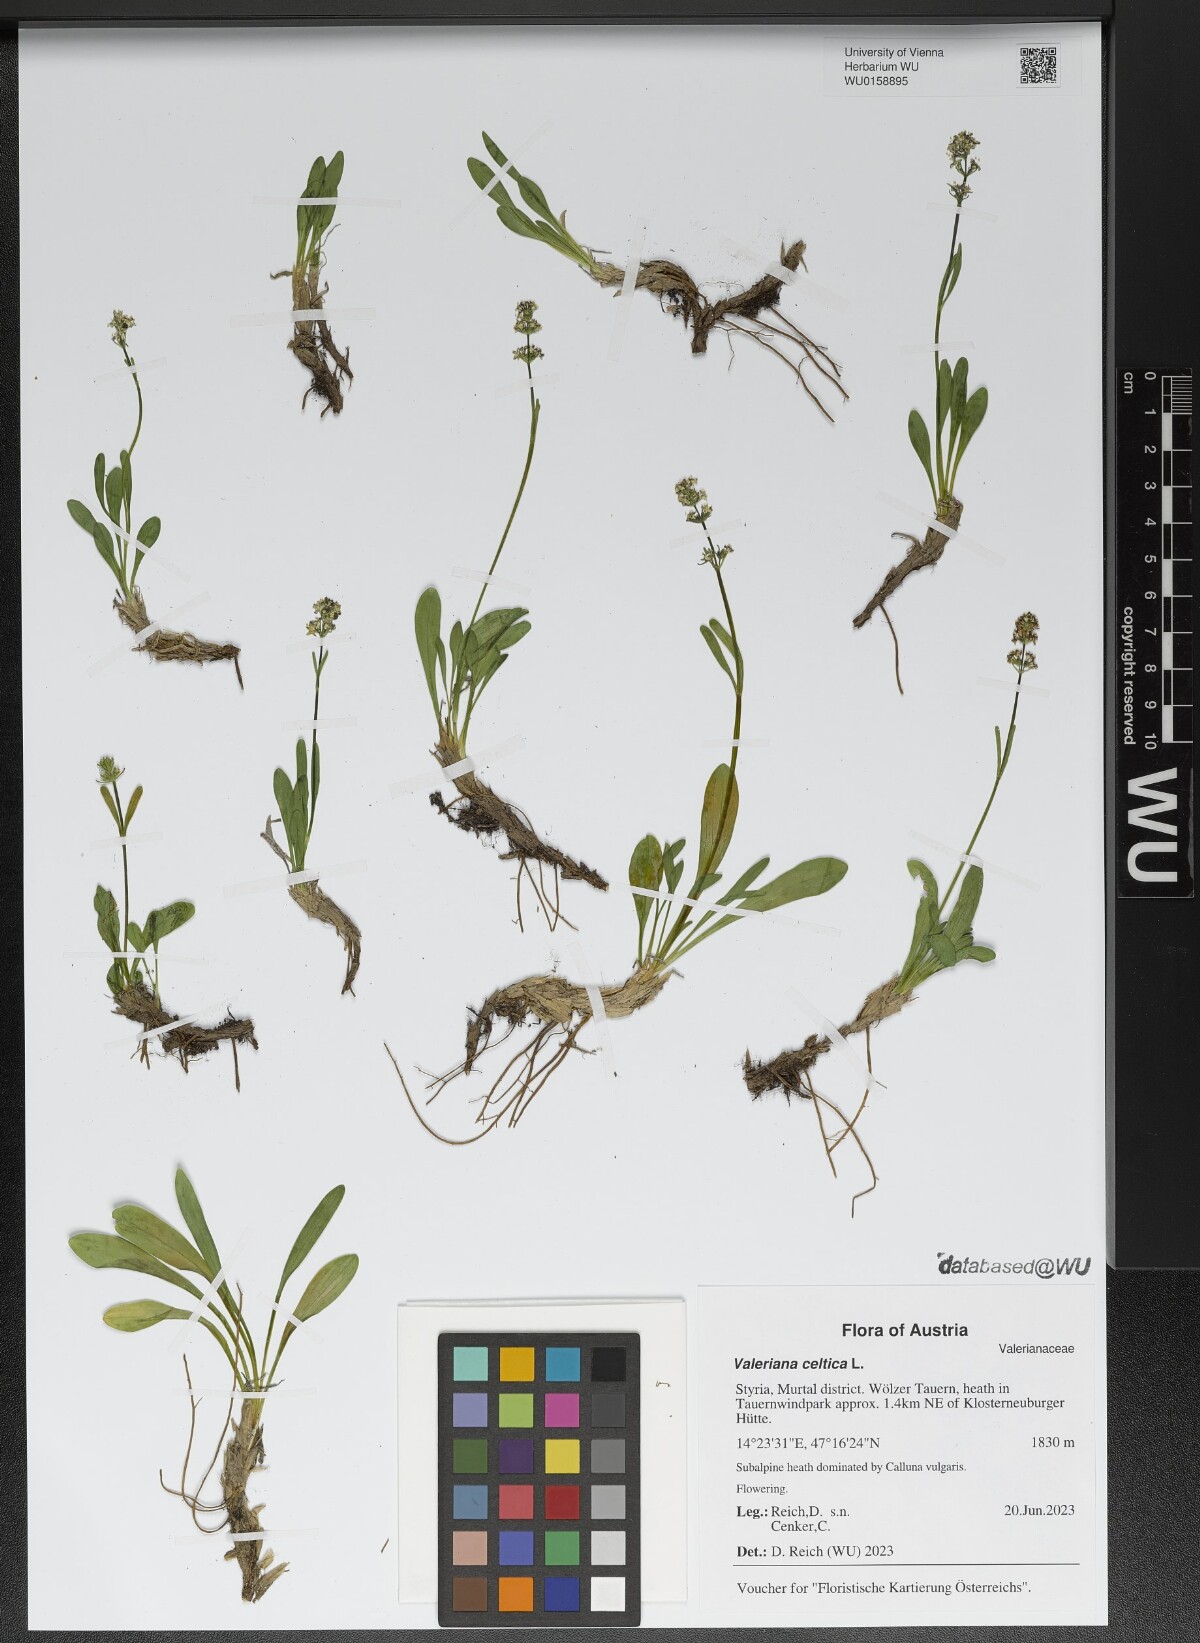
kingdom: Plantae
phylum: Tracheophyta
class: Magnoliopsida
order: Dipsacales
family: Caprifoliaceae
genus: Valeriana
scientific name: Valeriana celtica
